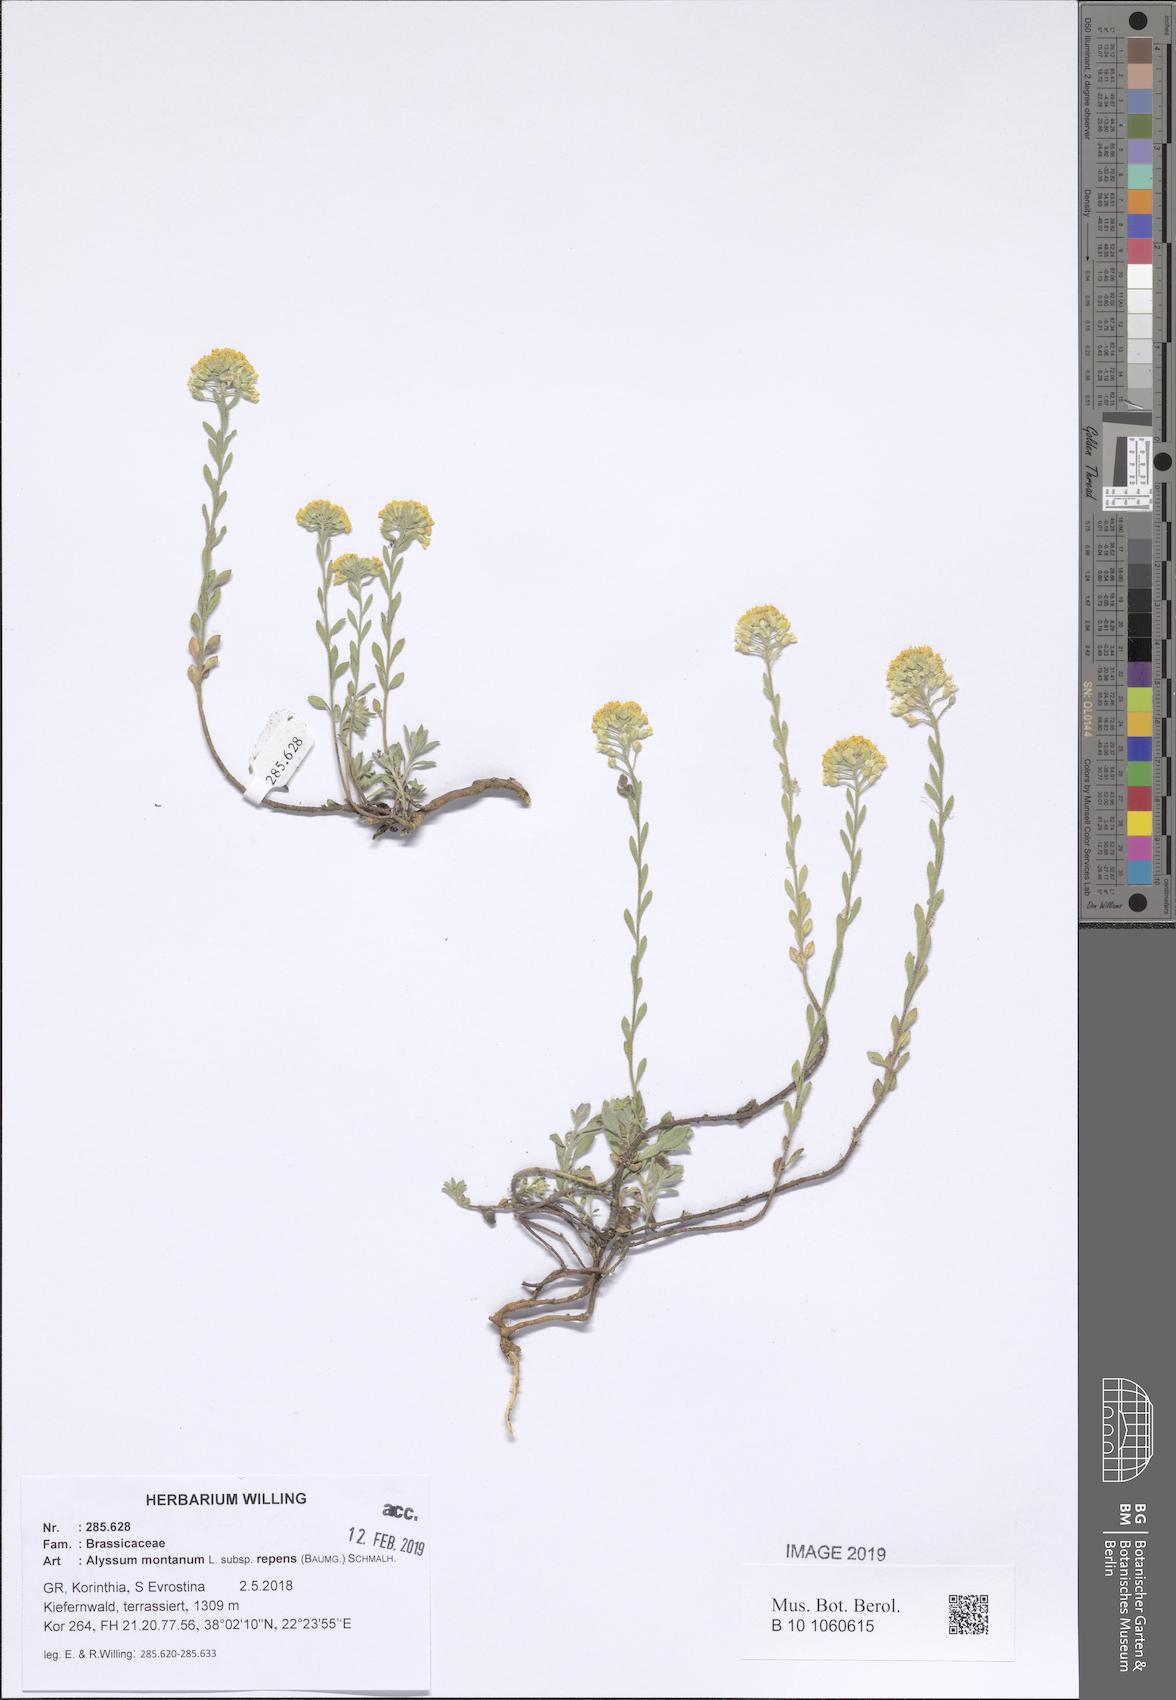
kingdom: Plantae
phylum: Tracheophyta
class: Magnoliopsida
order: Brassicales
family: Brassicaceae
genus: Alyssum
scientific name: Alyssum trichostachyum
